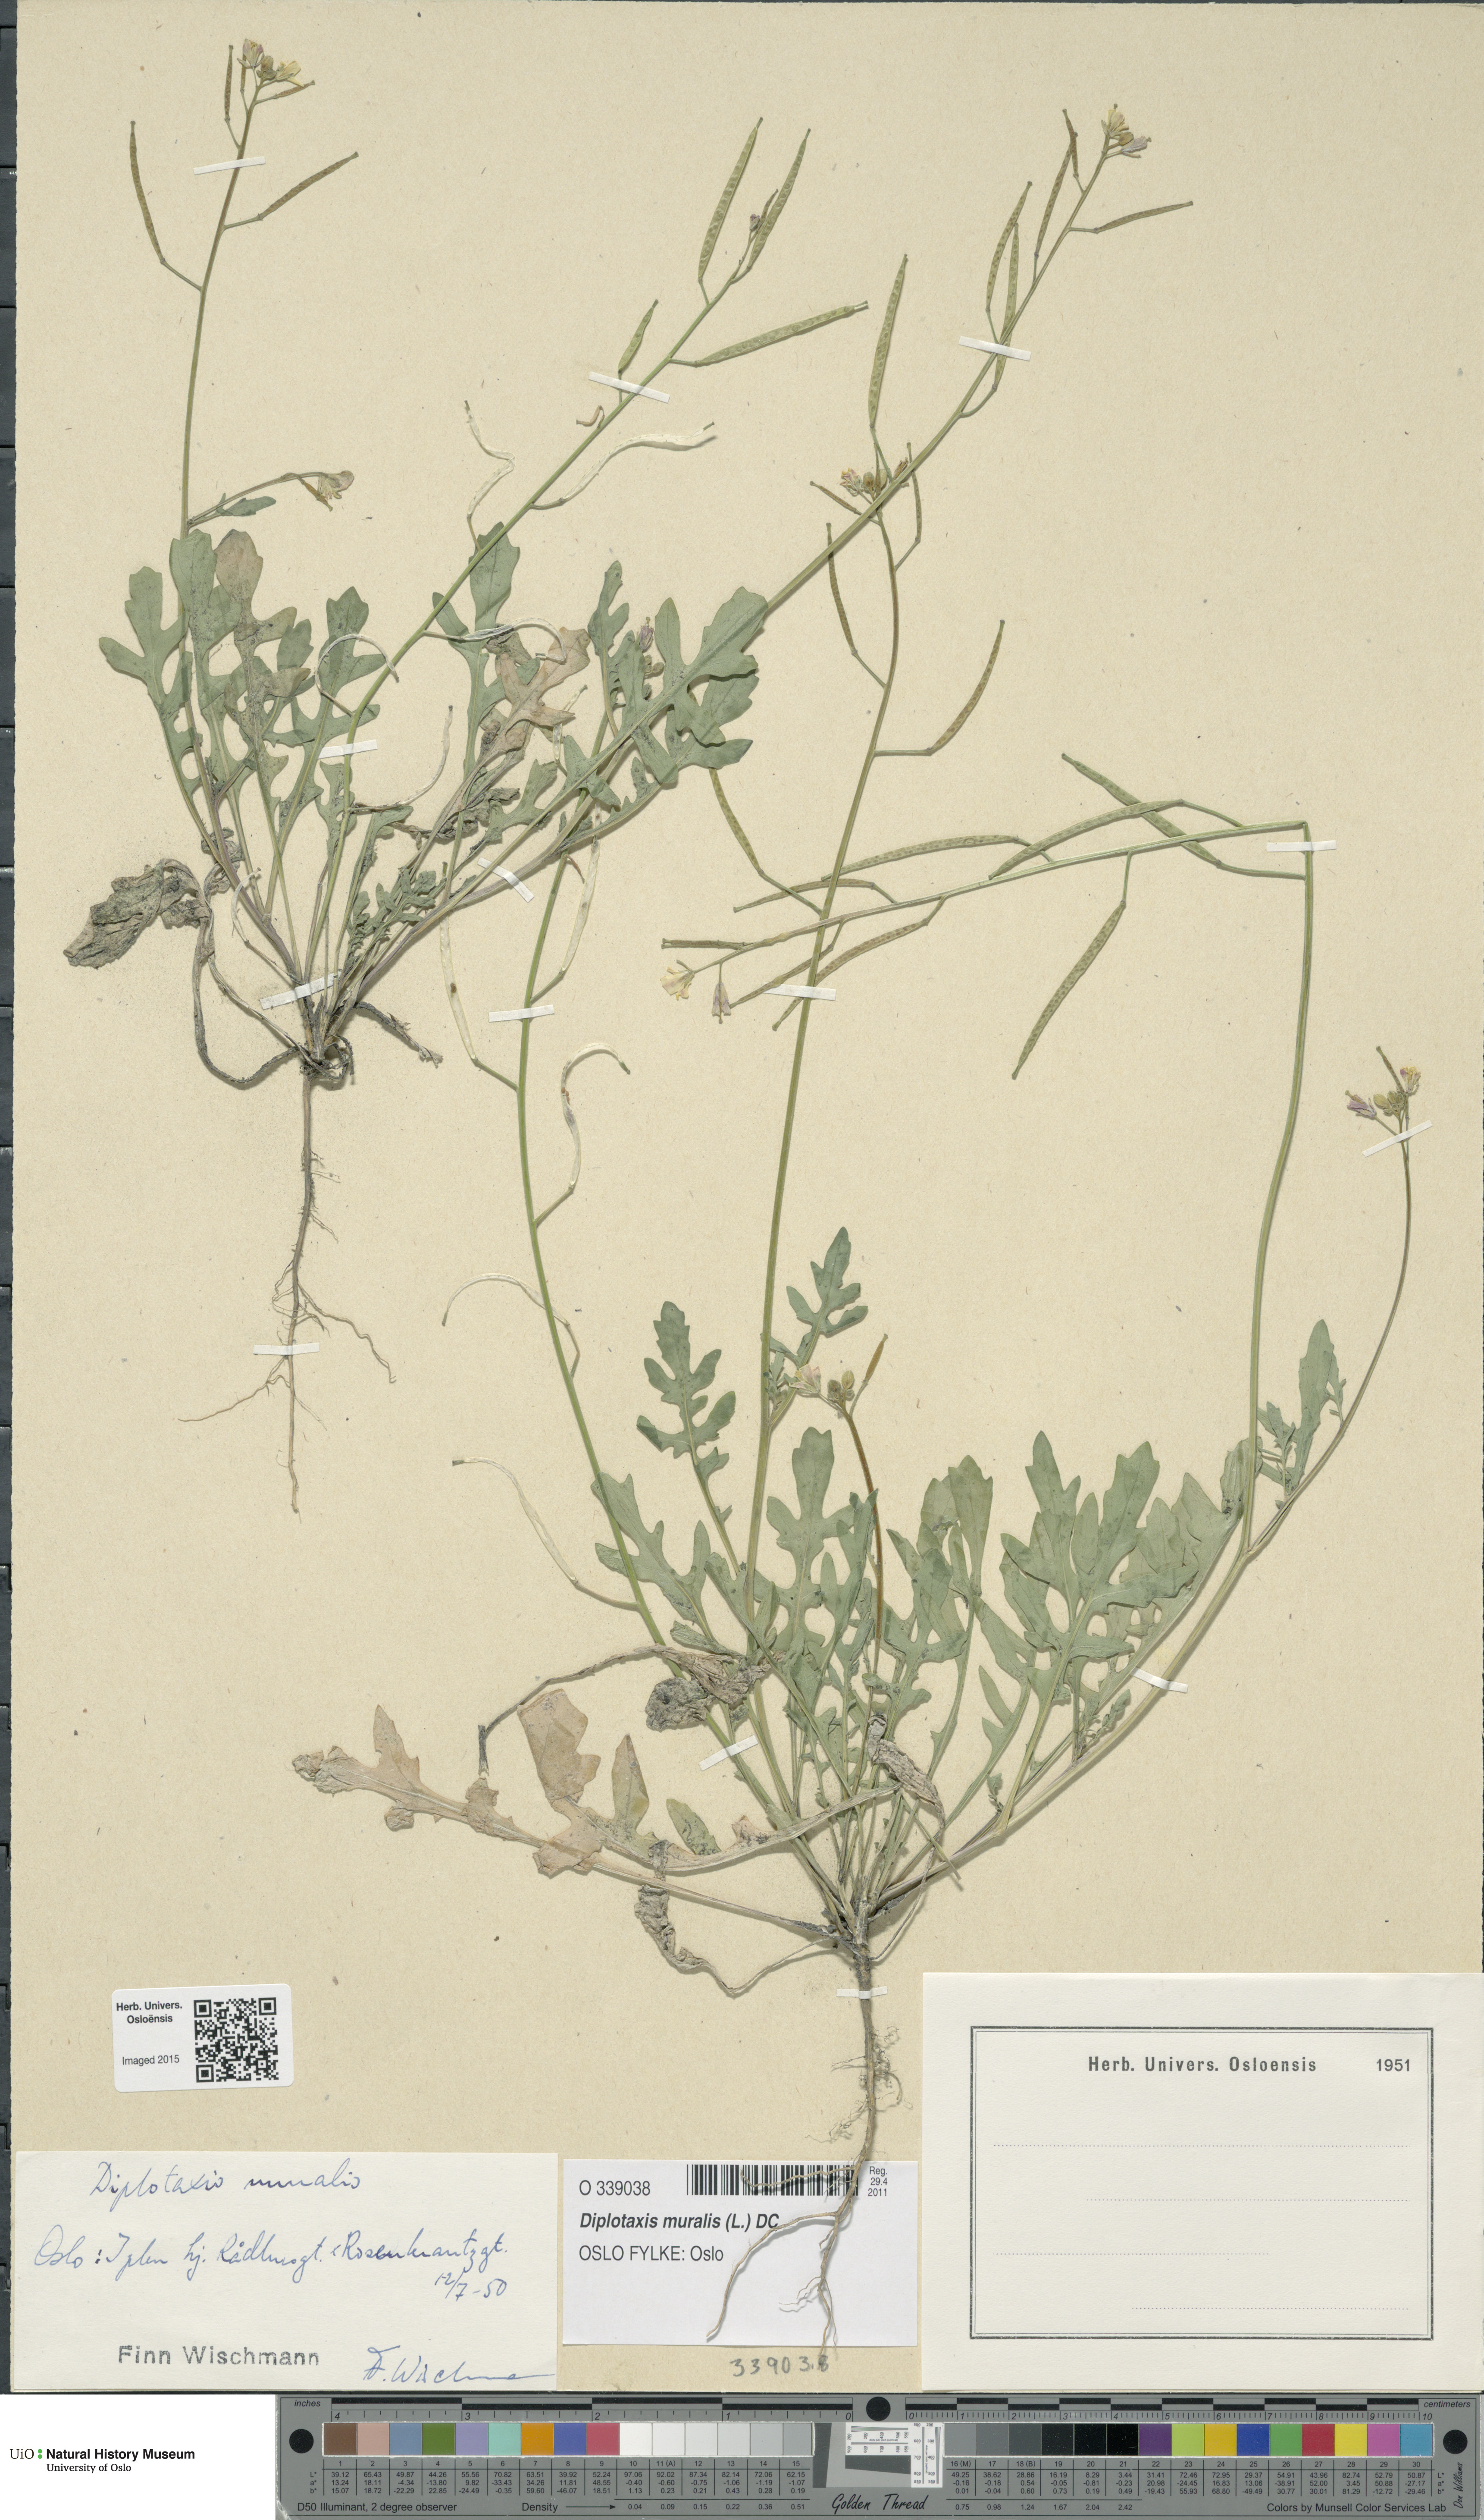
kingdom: Plantae
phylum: Tracheophyta
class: Magnoliopsida
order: Brassicales
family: Brassicaceae
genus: Diplotaxis
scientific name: Diplotaxis muralis
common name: Annual wall-rocket
